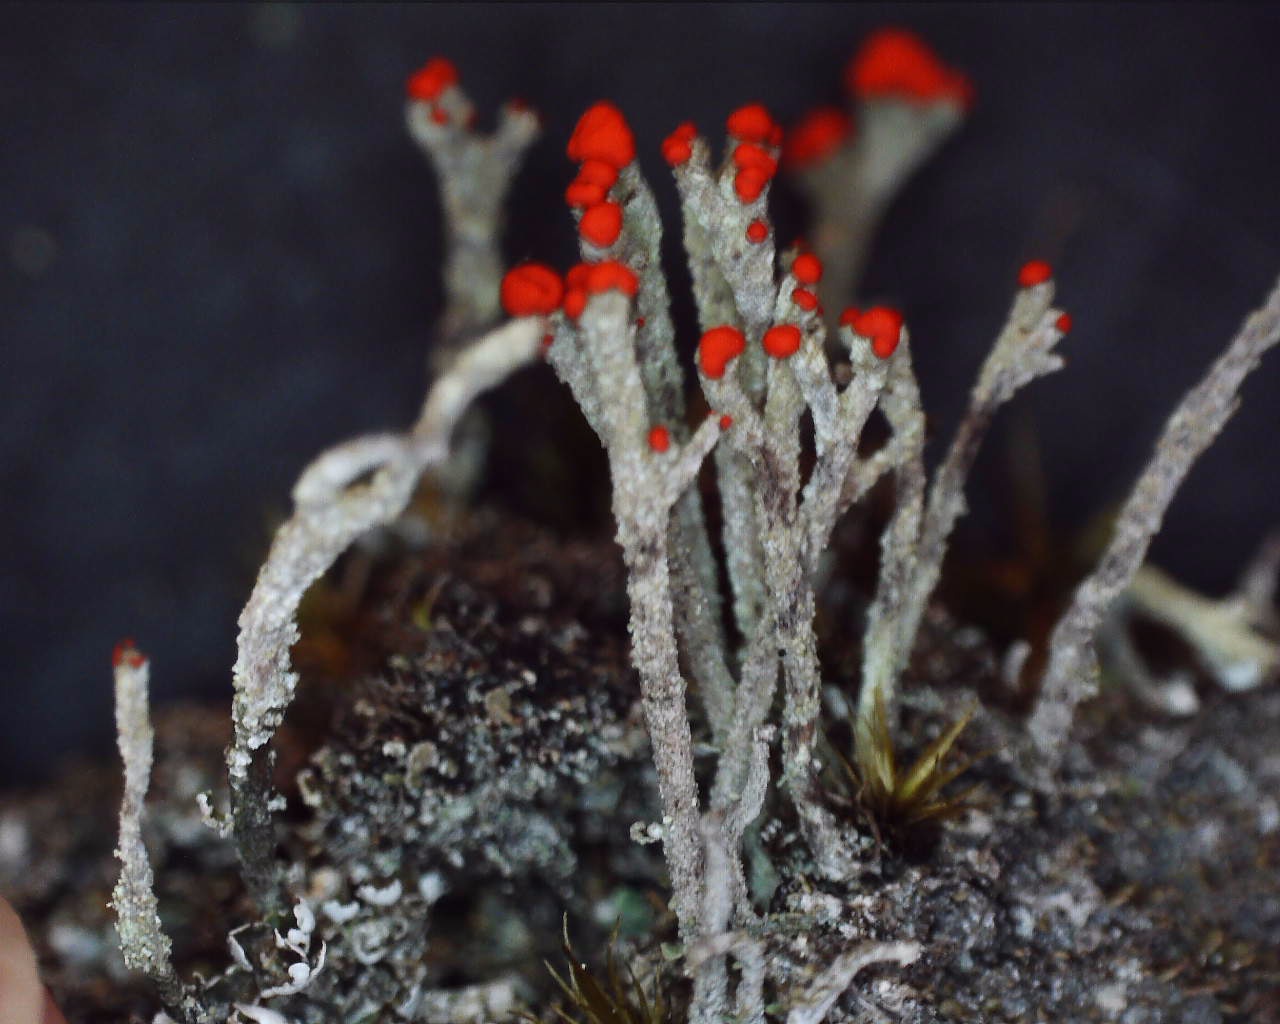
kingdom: Fungi
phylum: Ascomycota
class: Lecanoromycetes
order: Lecanorales
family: Cladoniaceae
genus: Cladonia
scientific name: Cladonia floerkeana
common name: lakrød bægerlav
